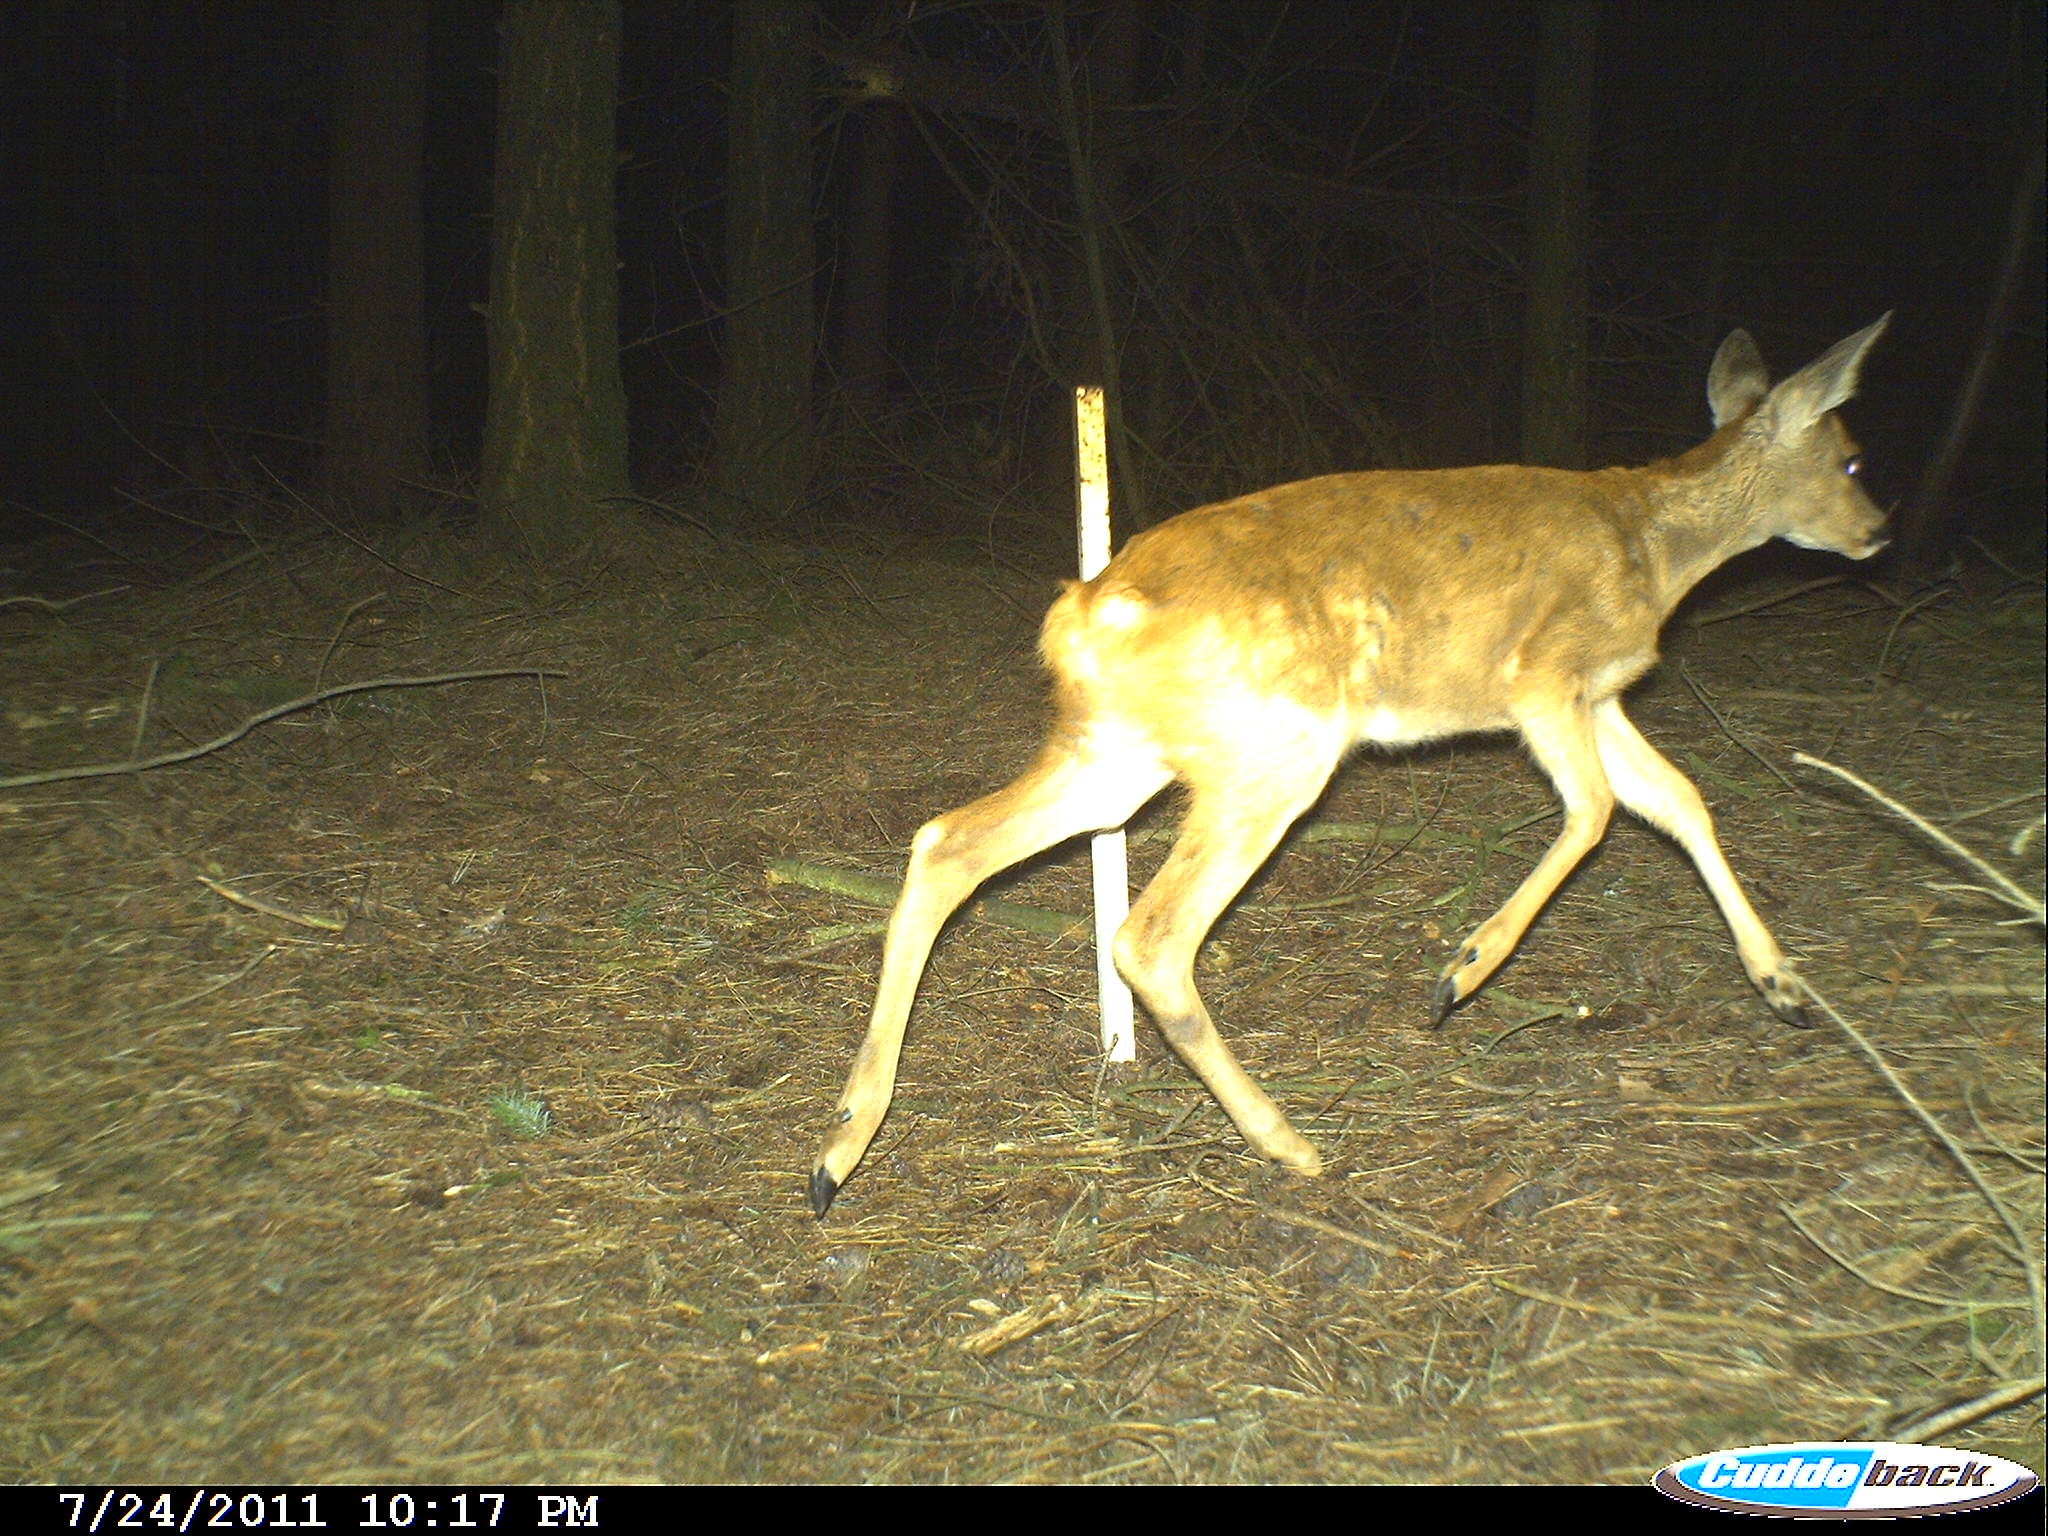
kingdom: Animalia
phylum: Chordata
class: Mammalia
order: Artiodactyla
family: Cervidae
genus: Capreolus
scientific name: Capreolus capreolus
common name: Western roe deer
